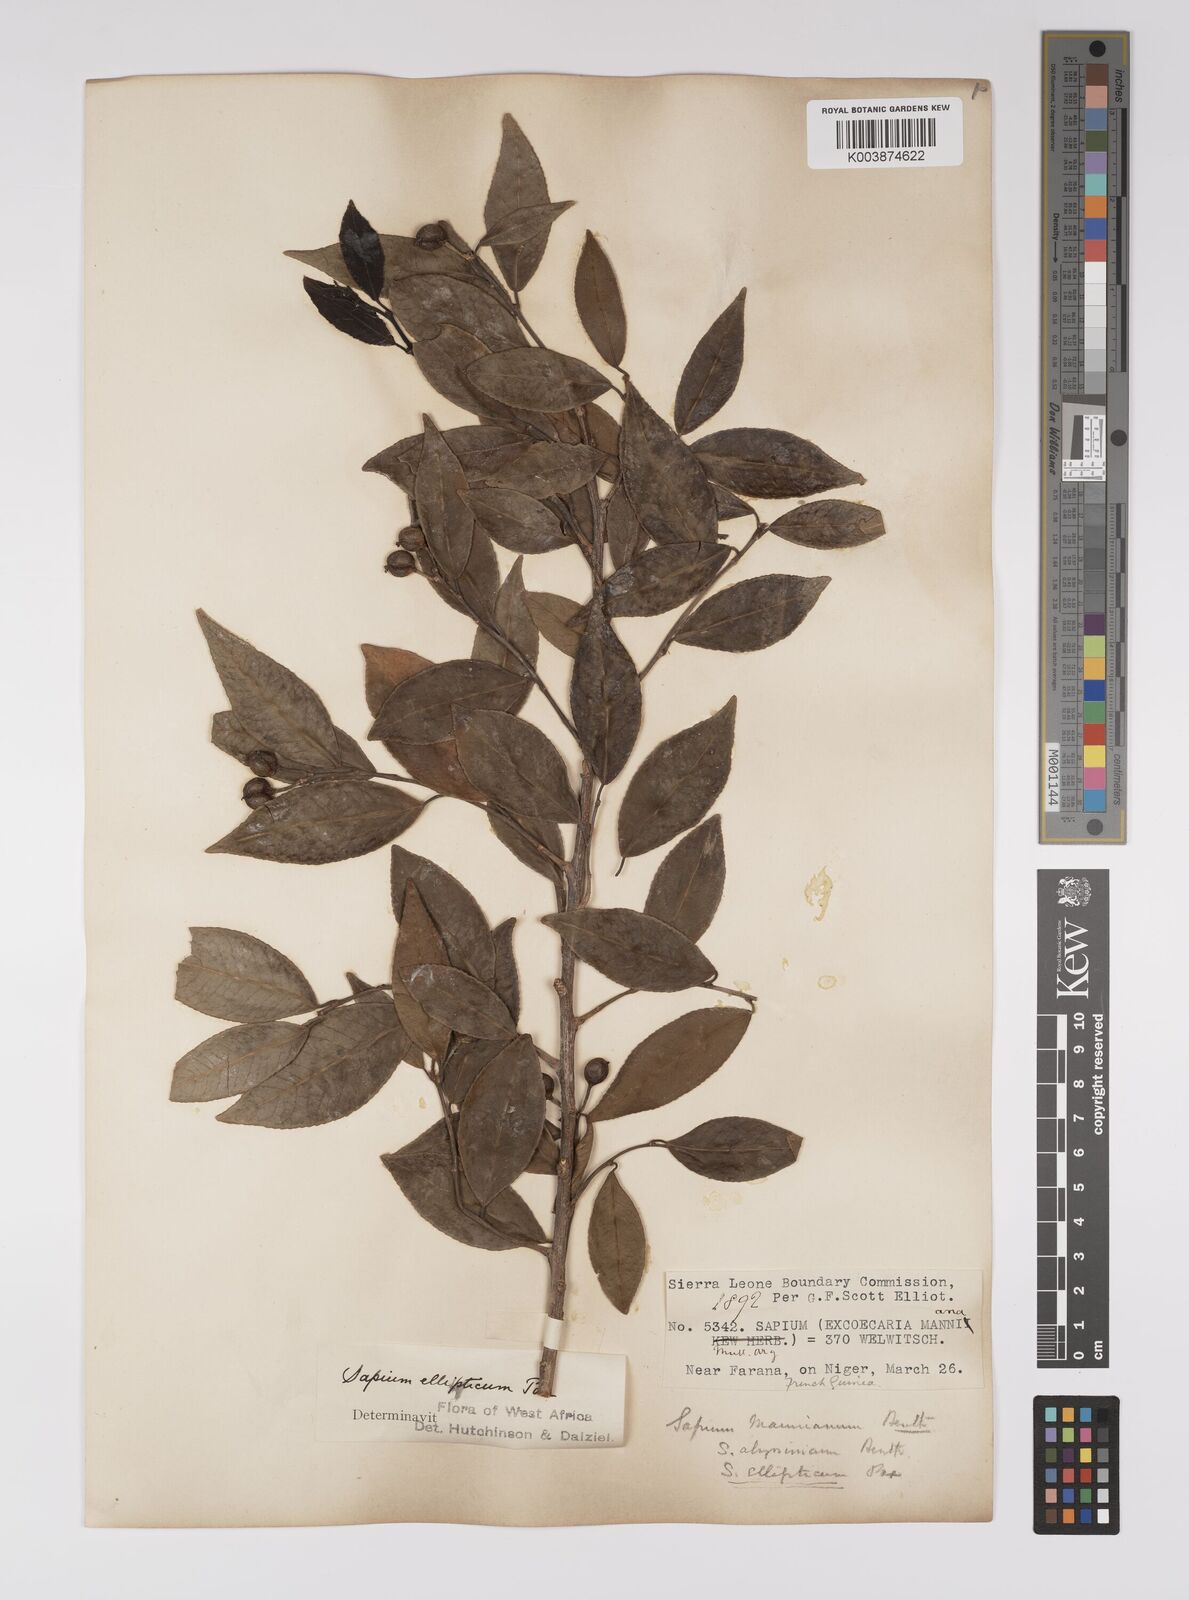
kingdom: Plantae
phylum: Tracheophyta
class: Magnoliopsida
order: Malpighiales
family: Euphorbiaceae
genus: Shirakiopsis
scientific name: Shirakiopsis elliptica
